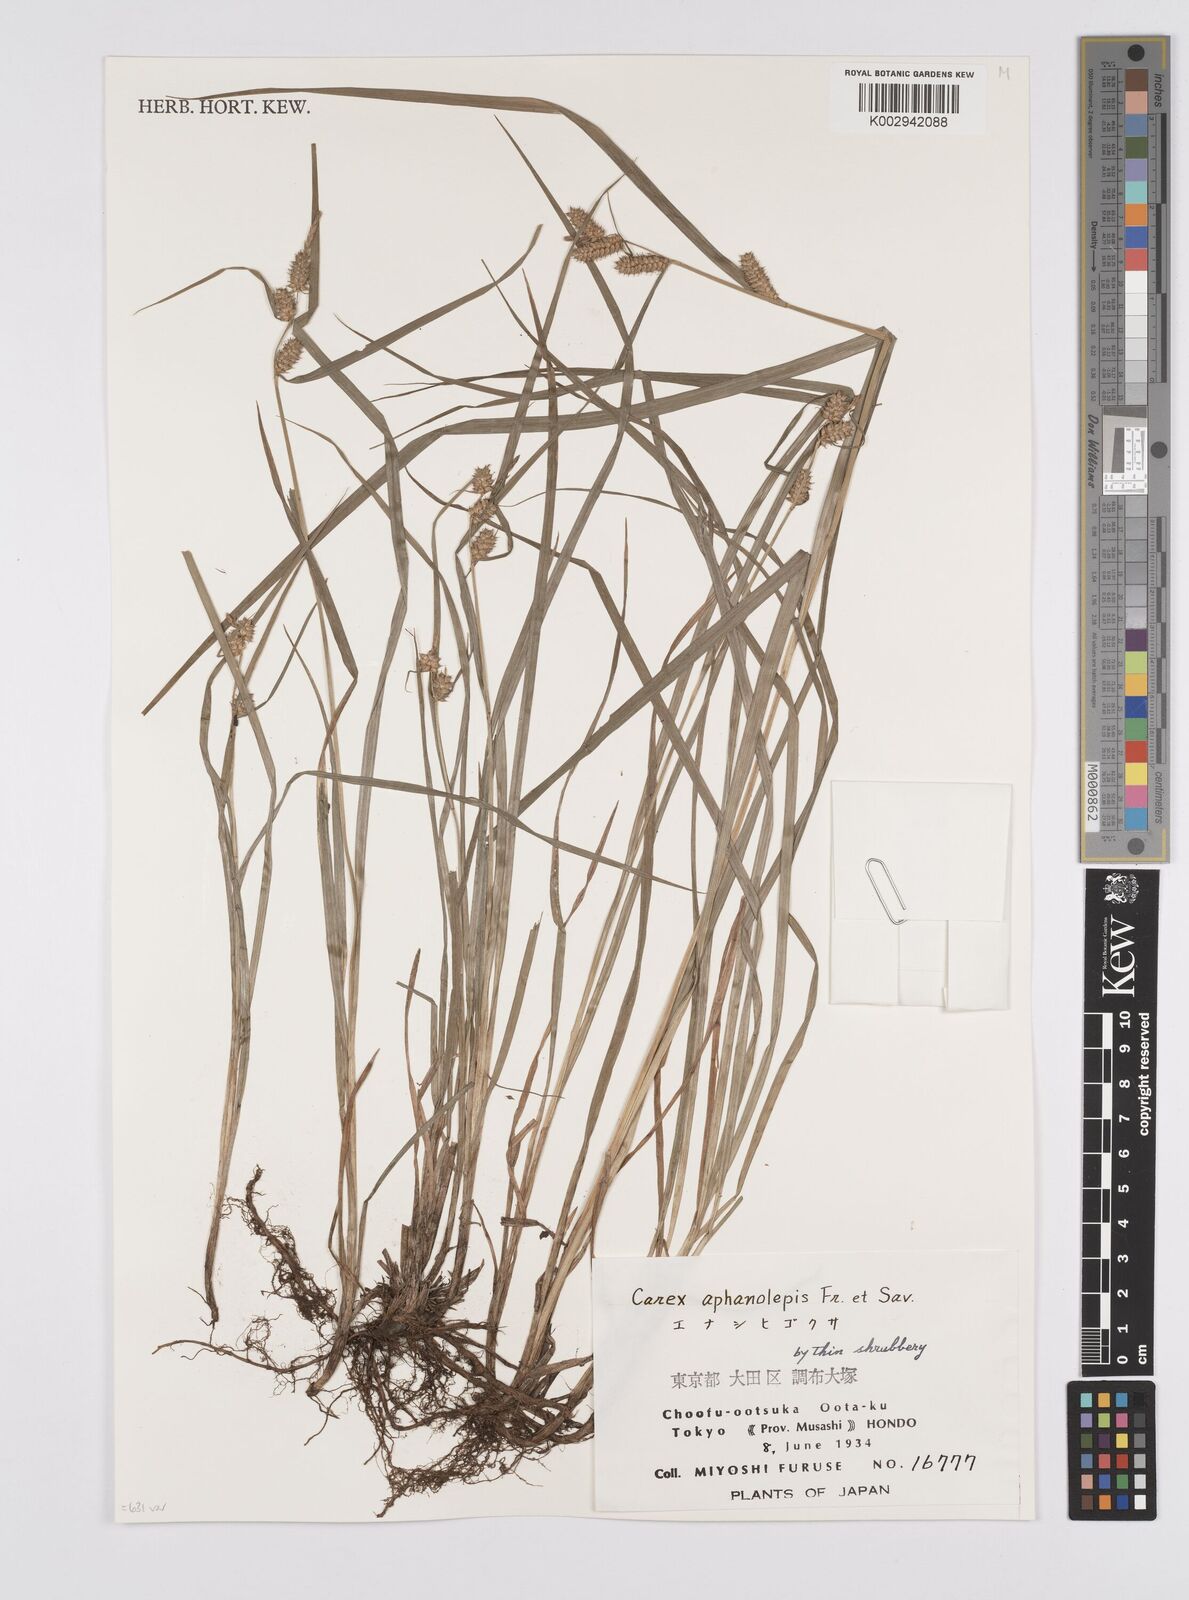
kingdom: Plantae
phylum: Tracheophyta
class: Liliopsida
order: Poales
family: Cyperaceae
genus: Carex
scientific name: Carex japonica
